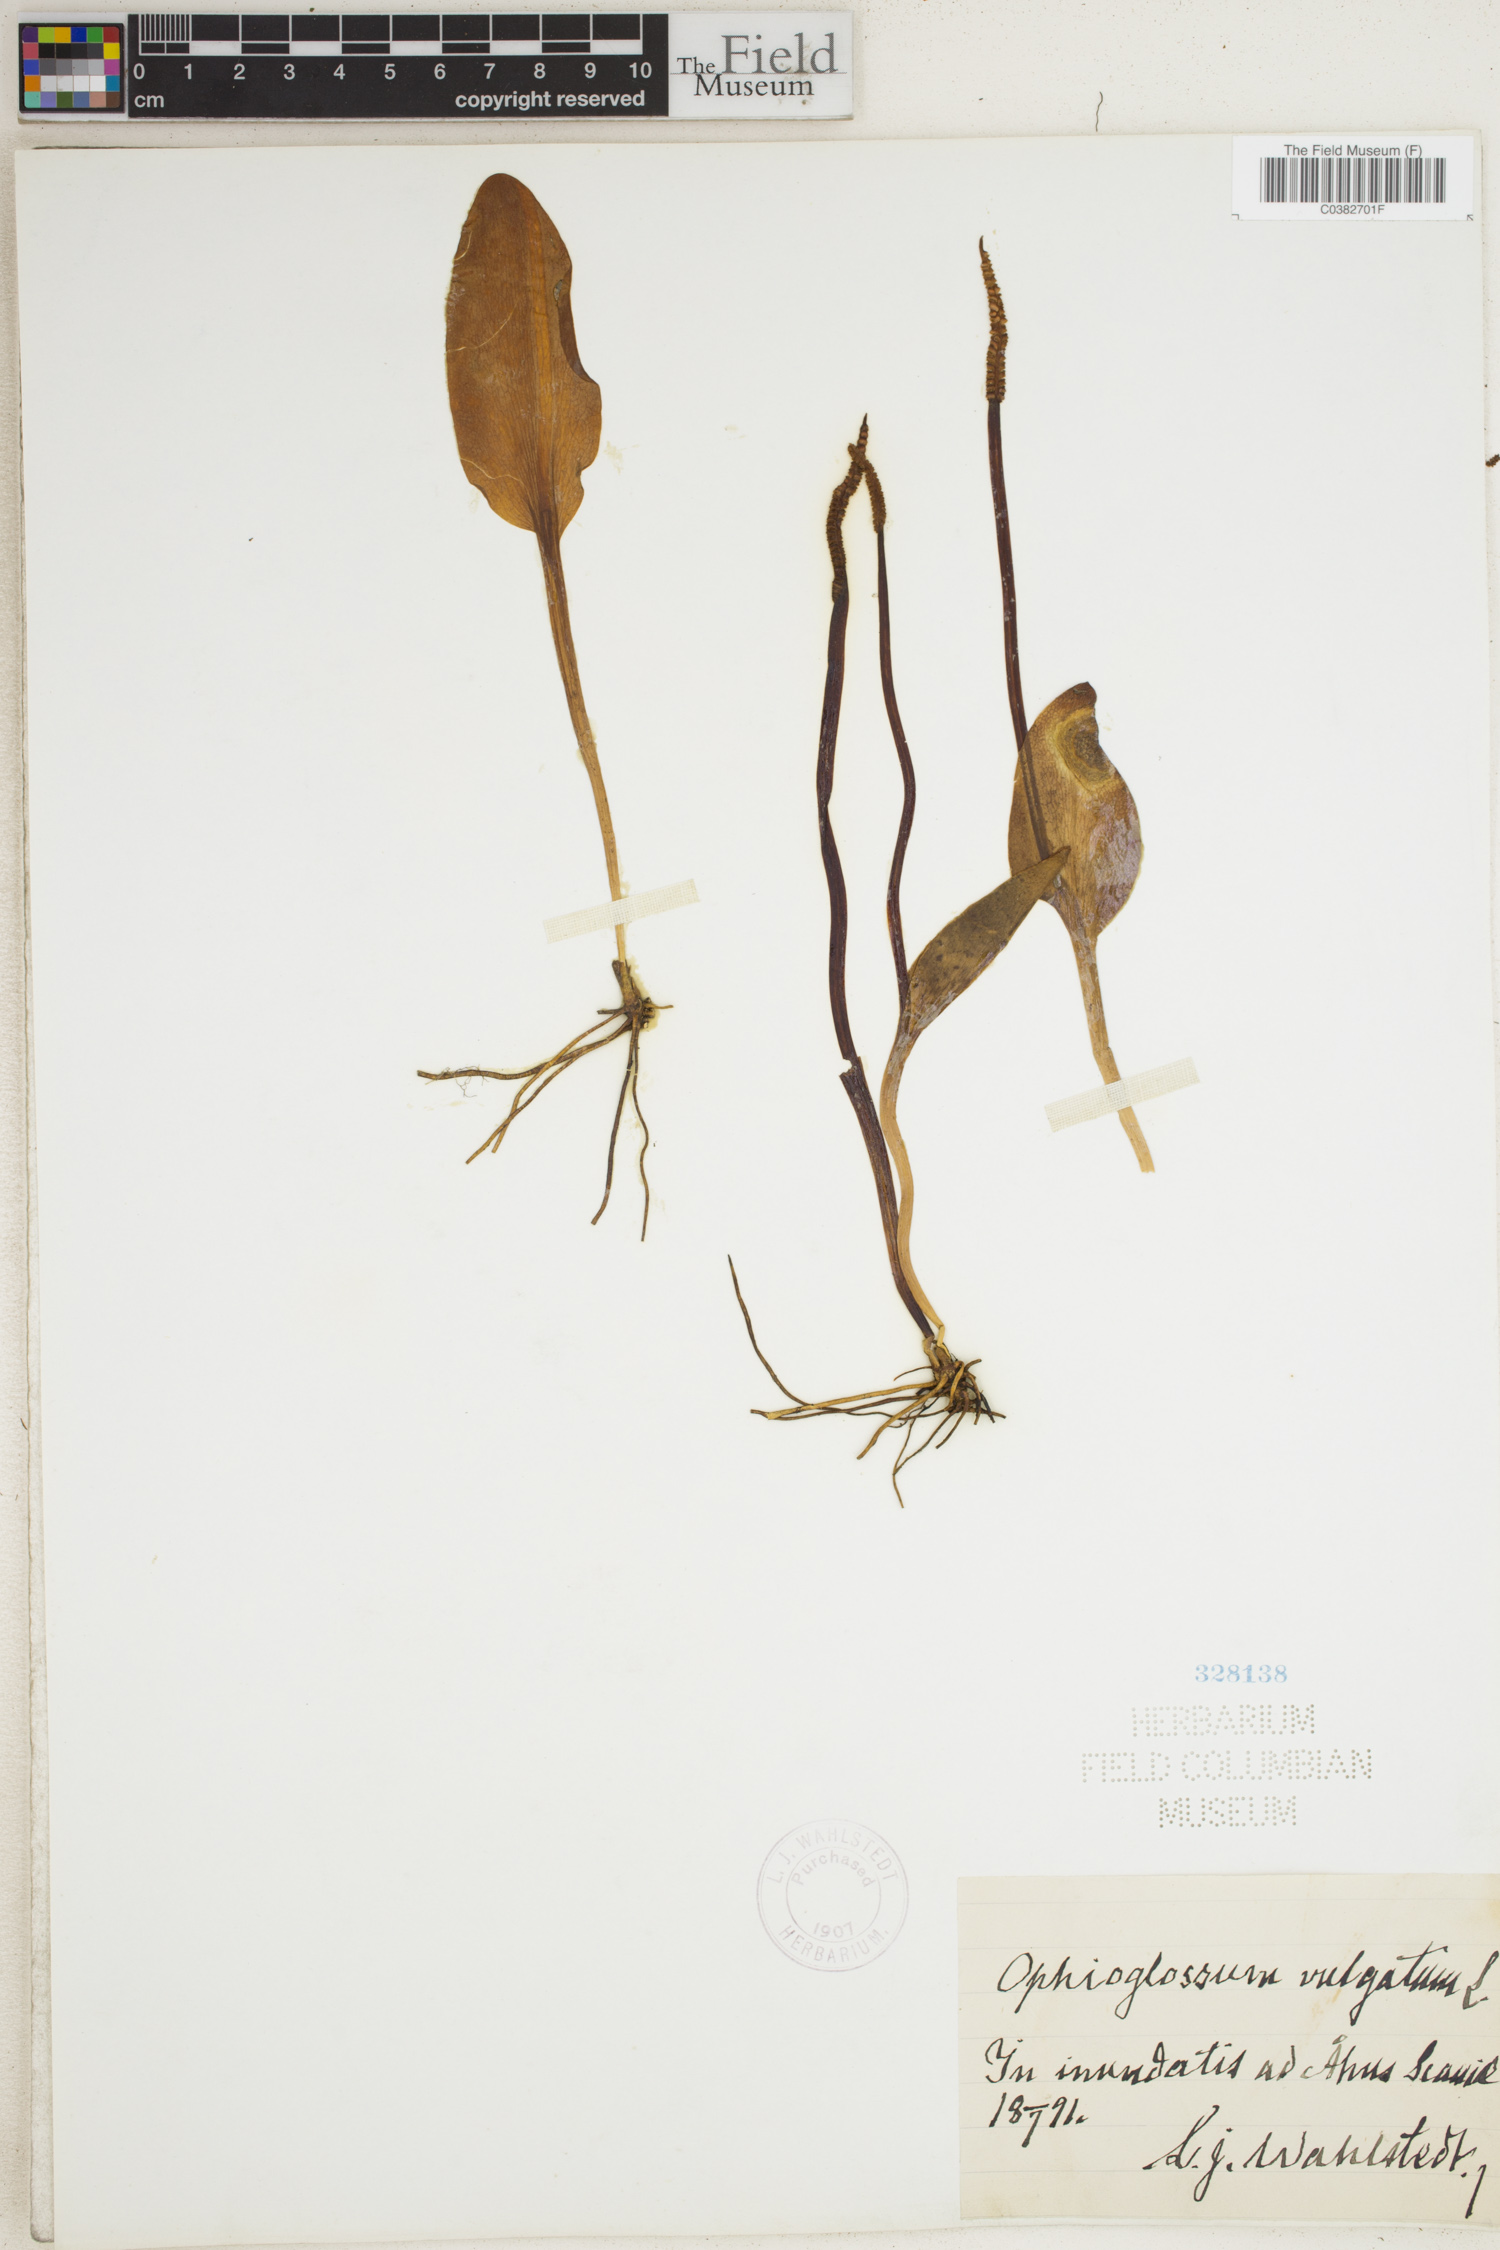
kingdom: Plantae
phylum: Tracheophyta
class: Polypodiopsida
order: Ophioglossales
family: Ophioglossaceae
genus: Ophioglossum
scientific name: Ophioglossum vulgatum
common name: Adder's-tongue
